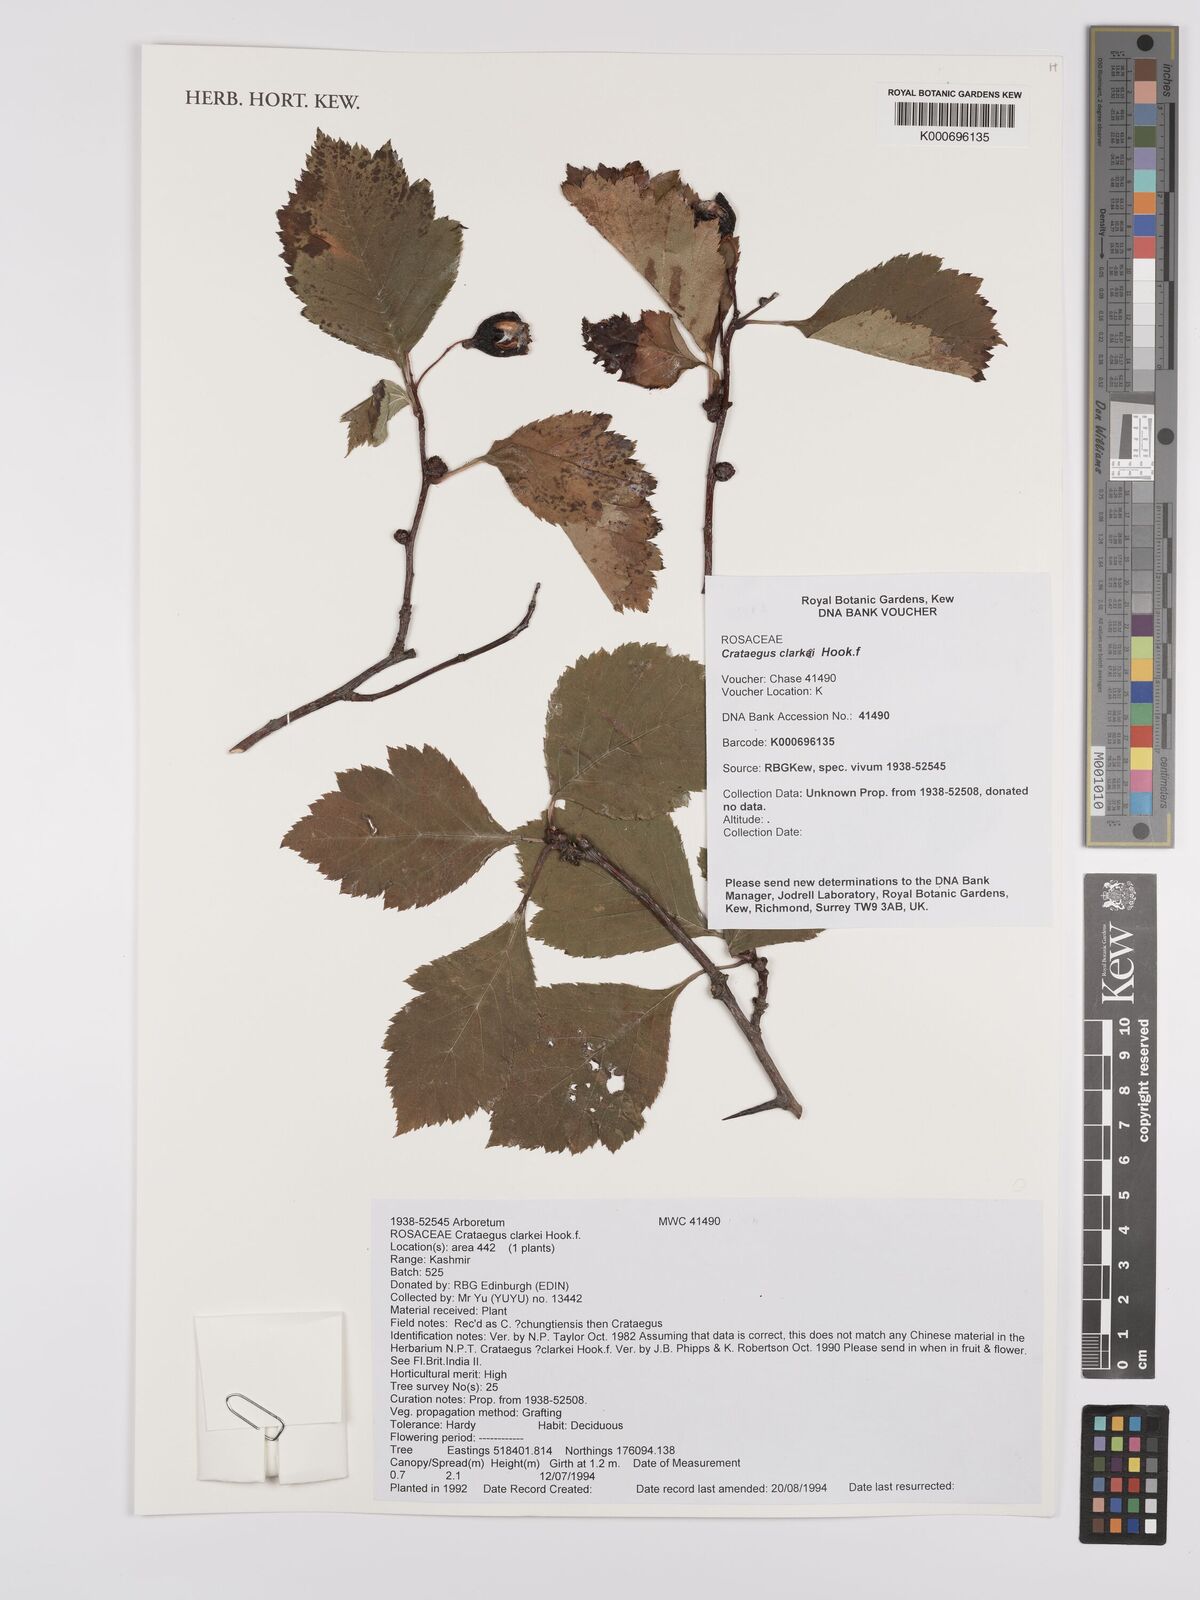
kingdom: Plantae
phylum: Tracheophyta
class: Magnoliopsida
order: Rosales
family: Rosaceae
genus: Crataegus
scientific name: Crataegus clarkei
